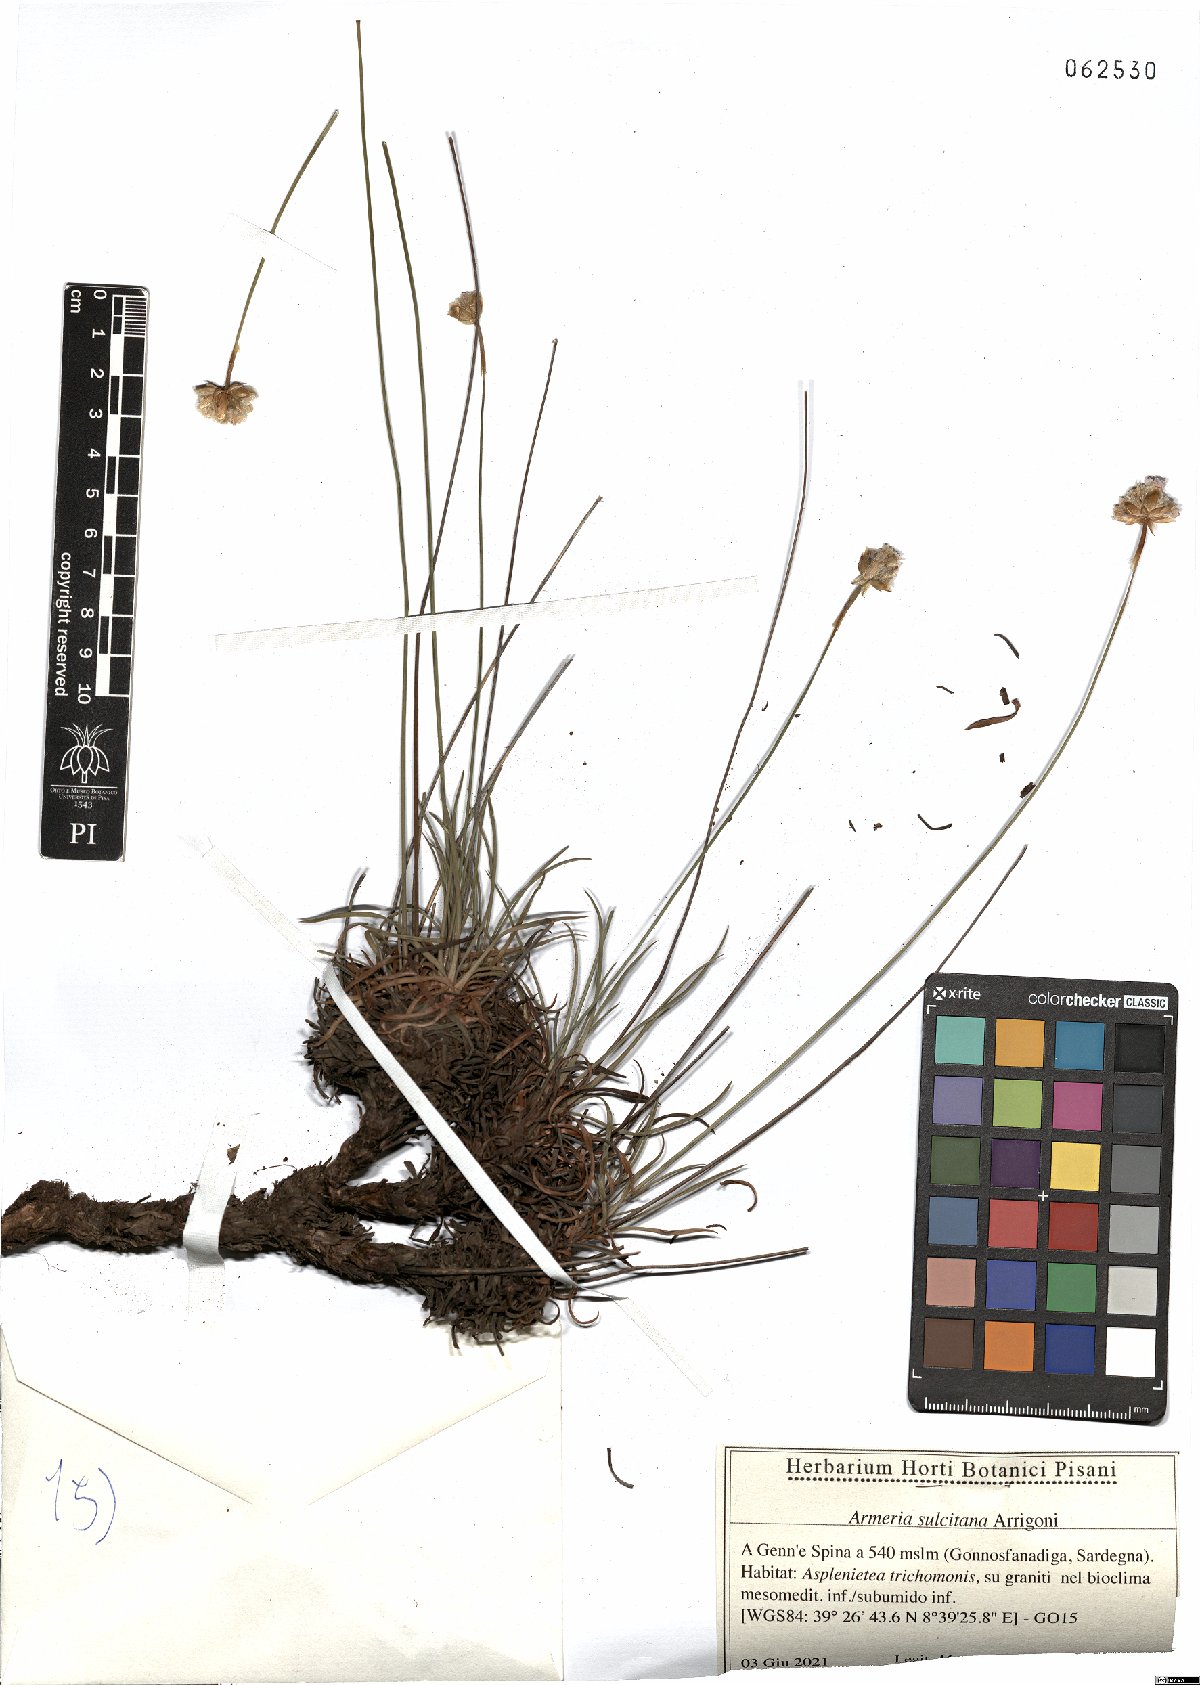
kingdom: Plantae
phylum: Tracheophyta
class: Magnoliopsida
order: Caryophyllales
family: Plumbaginaceae
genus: Armeria
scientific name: Armeria sulcitana
